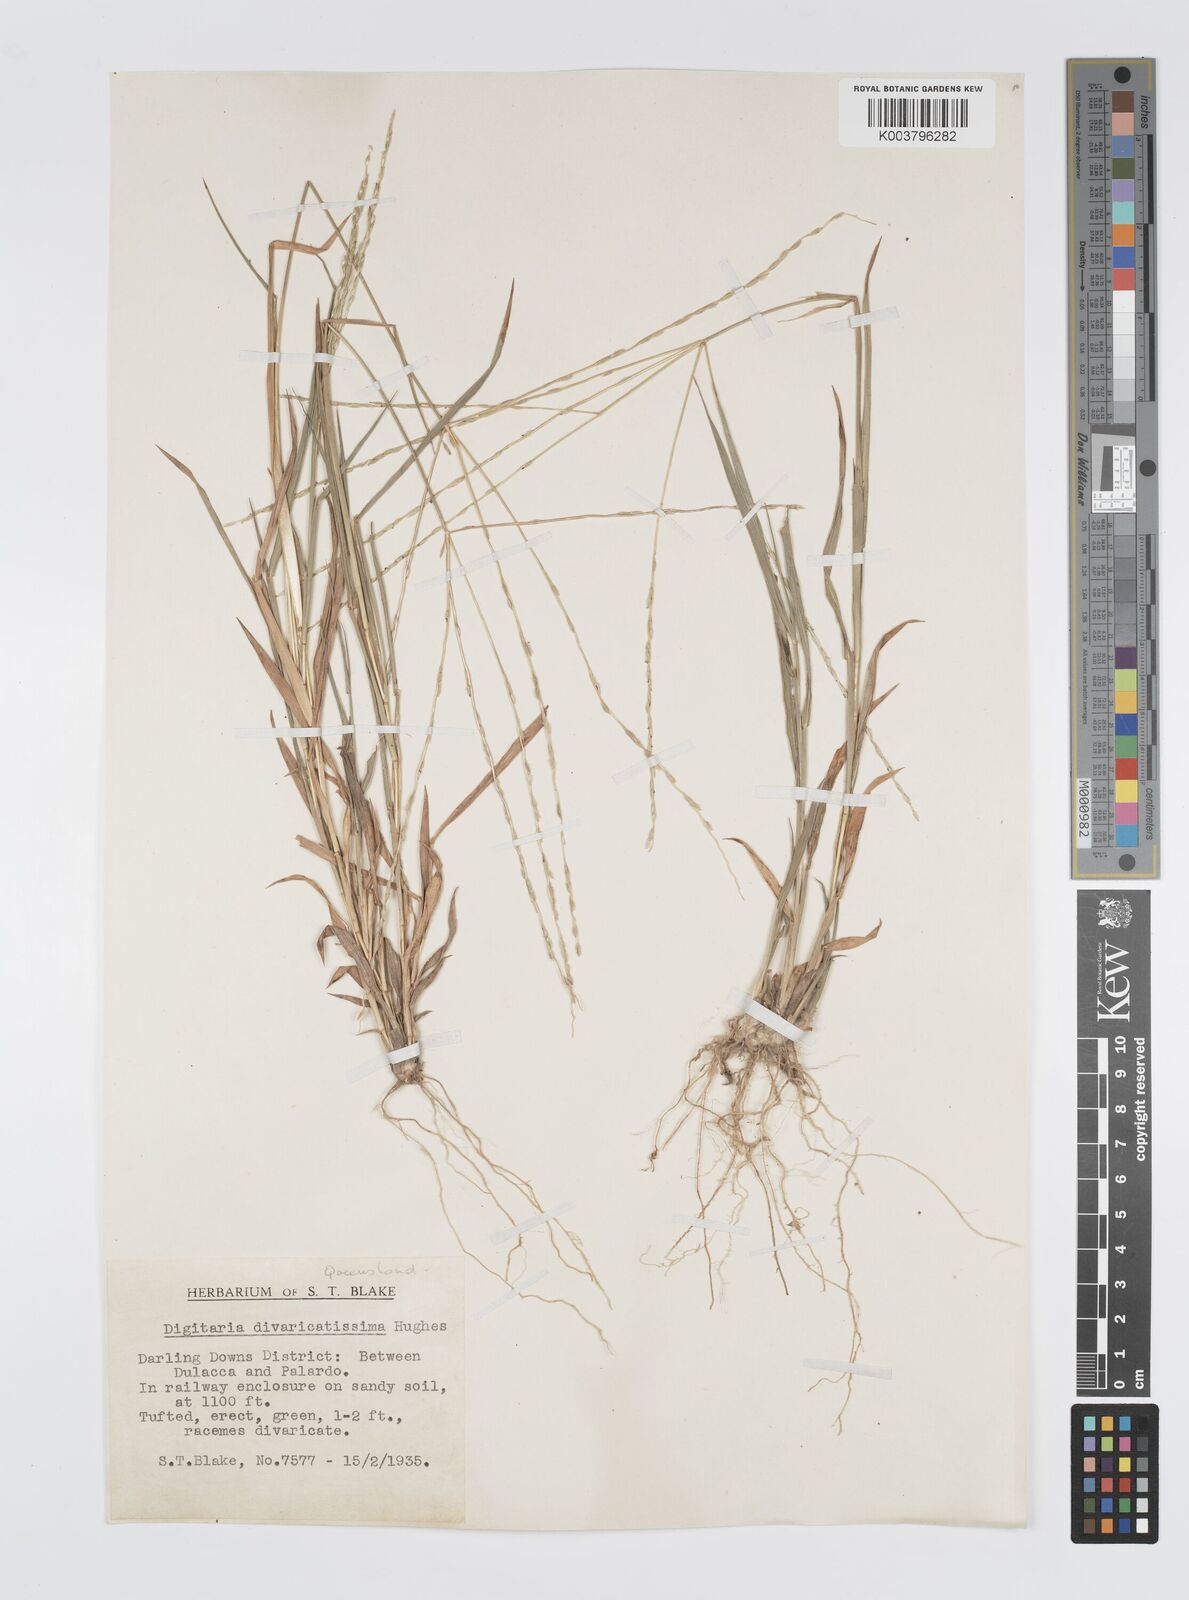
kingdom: Plantae
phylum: Tracheophyta
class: Liliopsida
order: Poales
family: Poaceae
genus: Digitaria
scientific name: Digitaria divaricatissima
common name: Crabgrass
